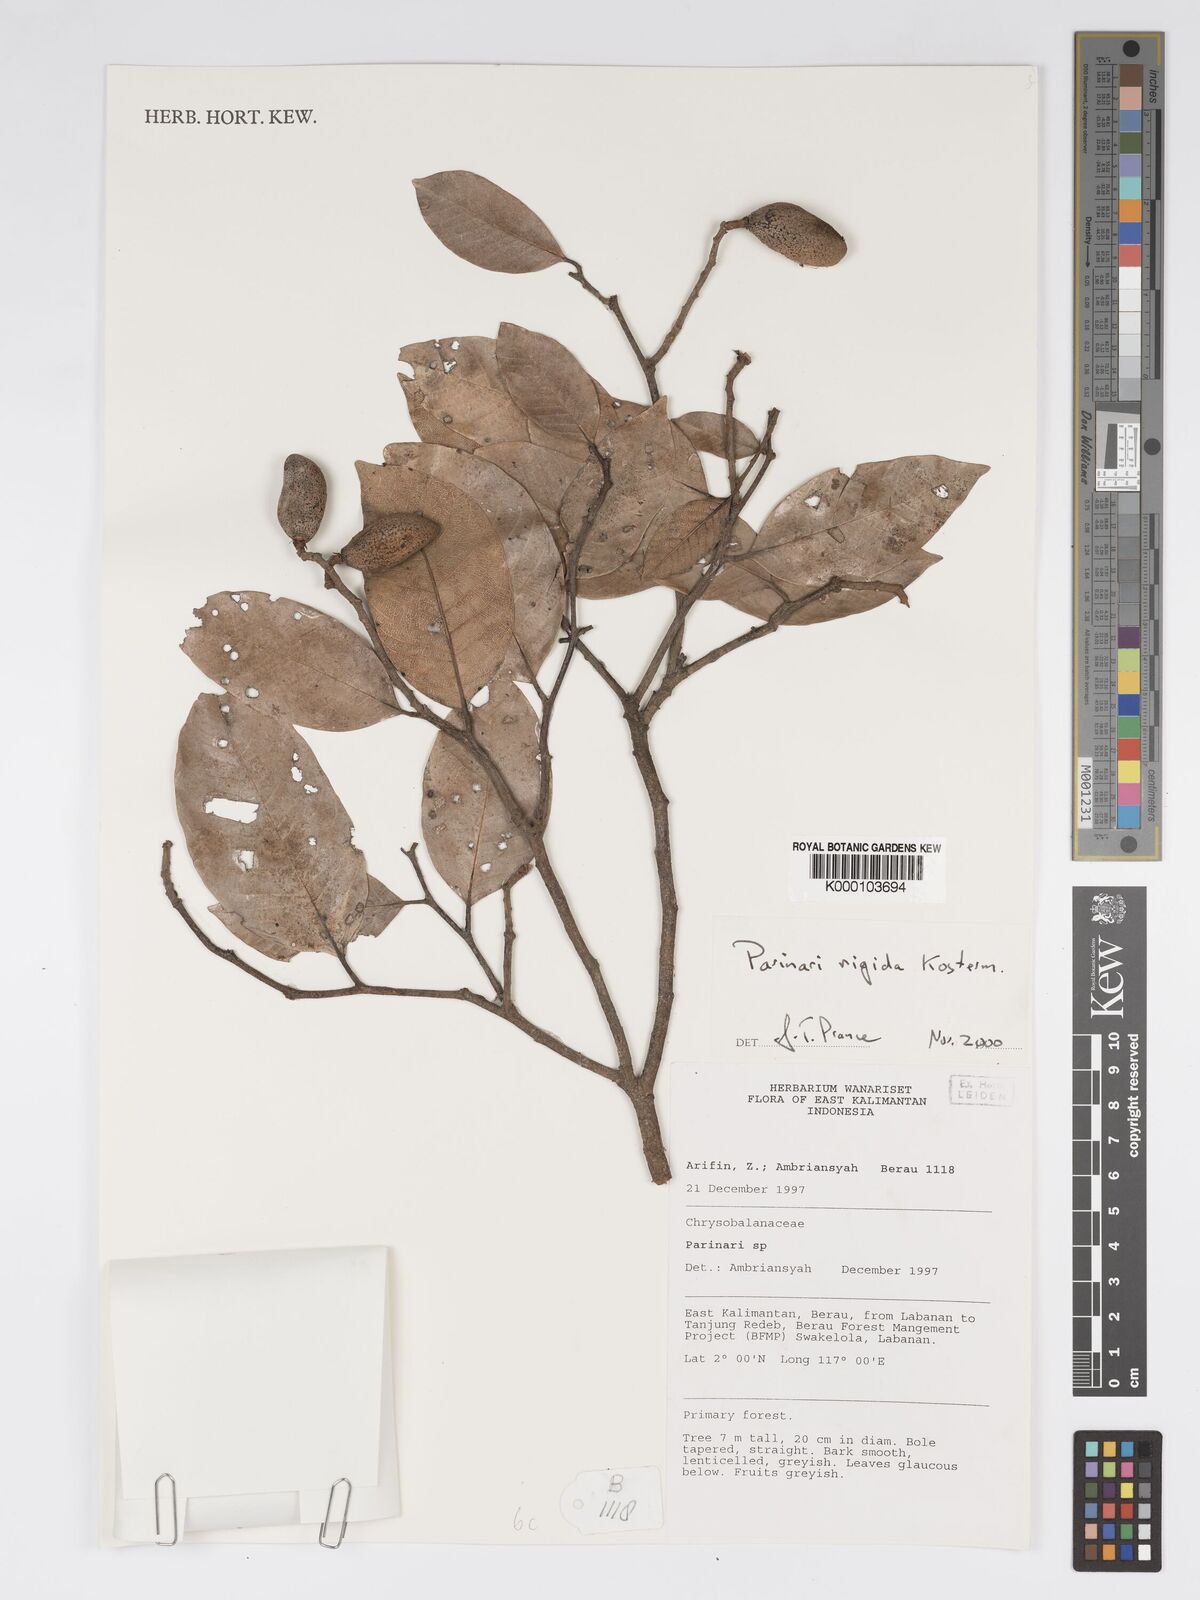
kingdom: Plantae
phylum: Tracheophyta
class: Magnoliopsida
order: Malpighiales
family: Chrysobalanaceae
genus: Parinari
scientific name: Parinari rigida
